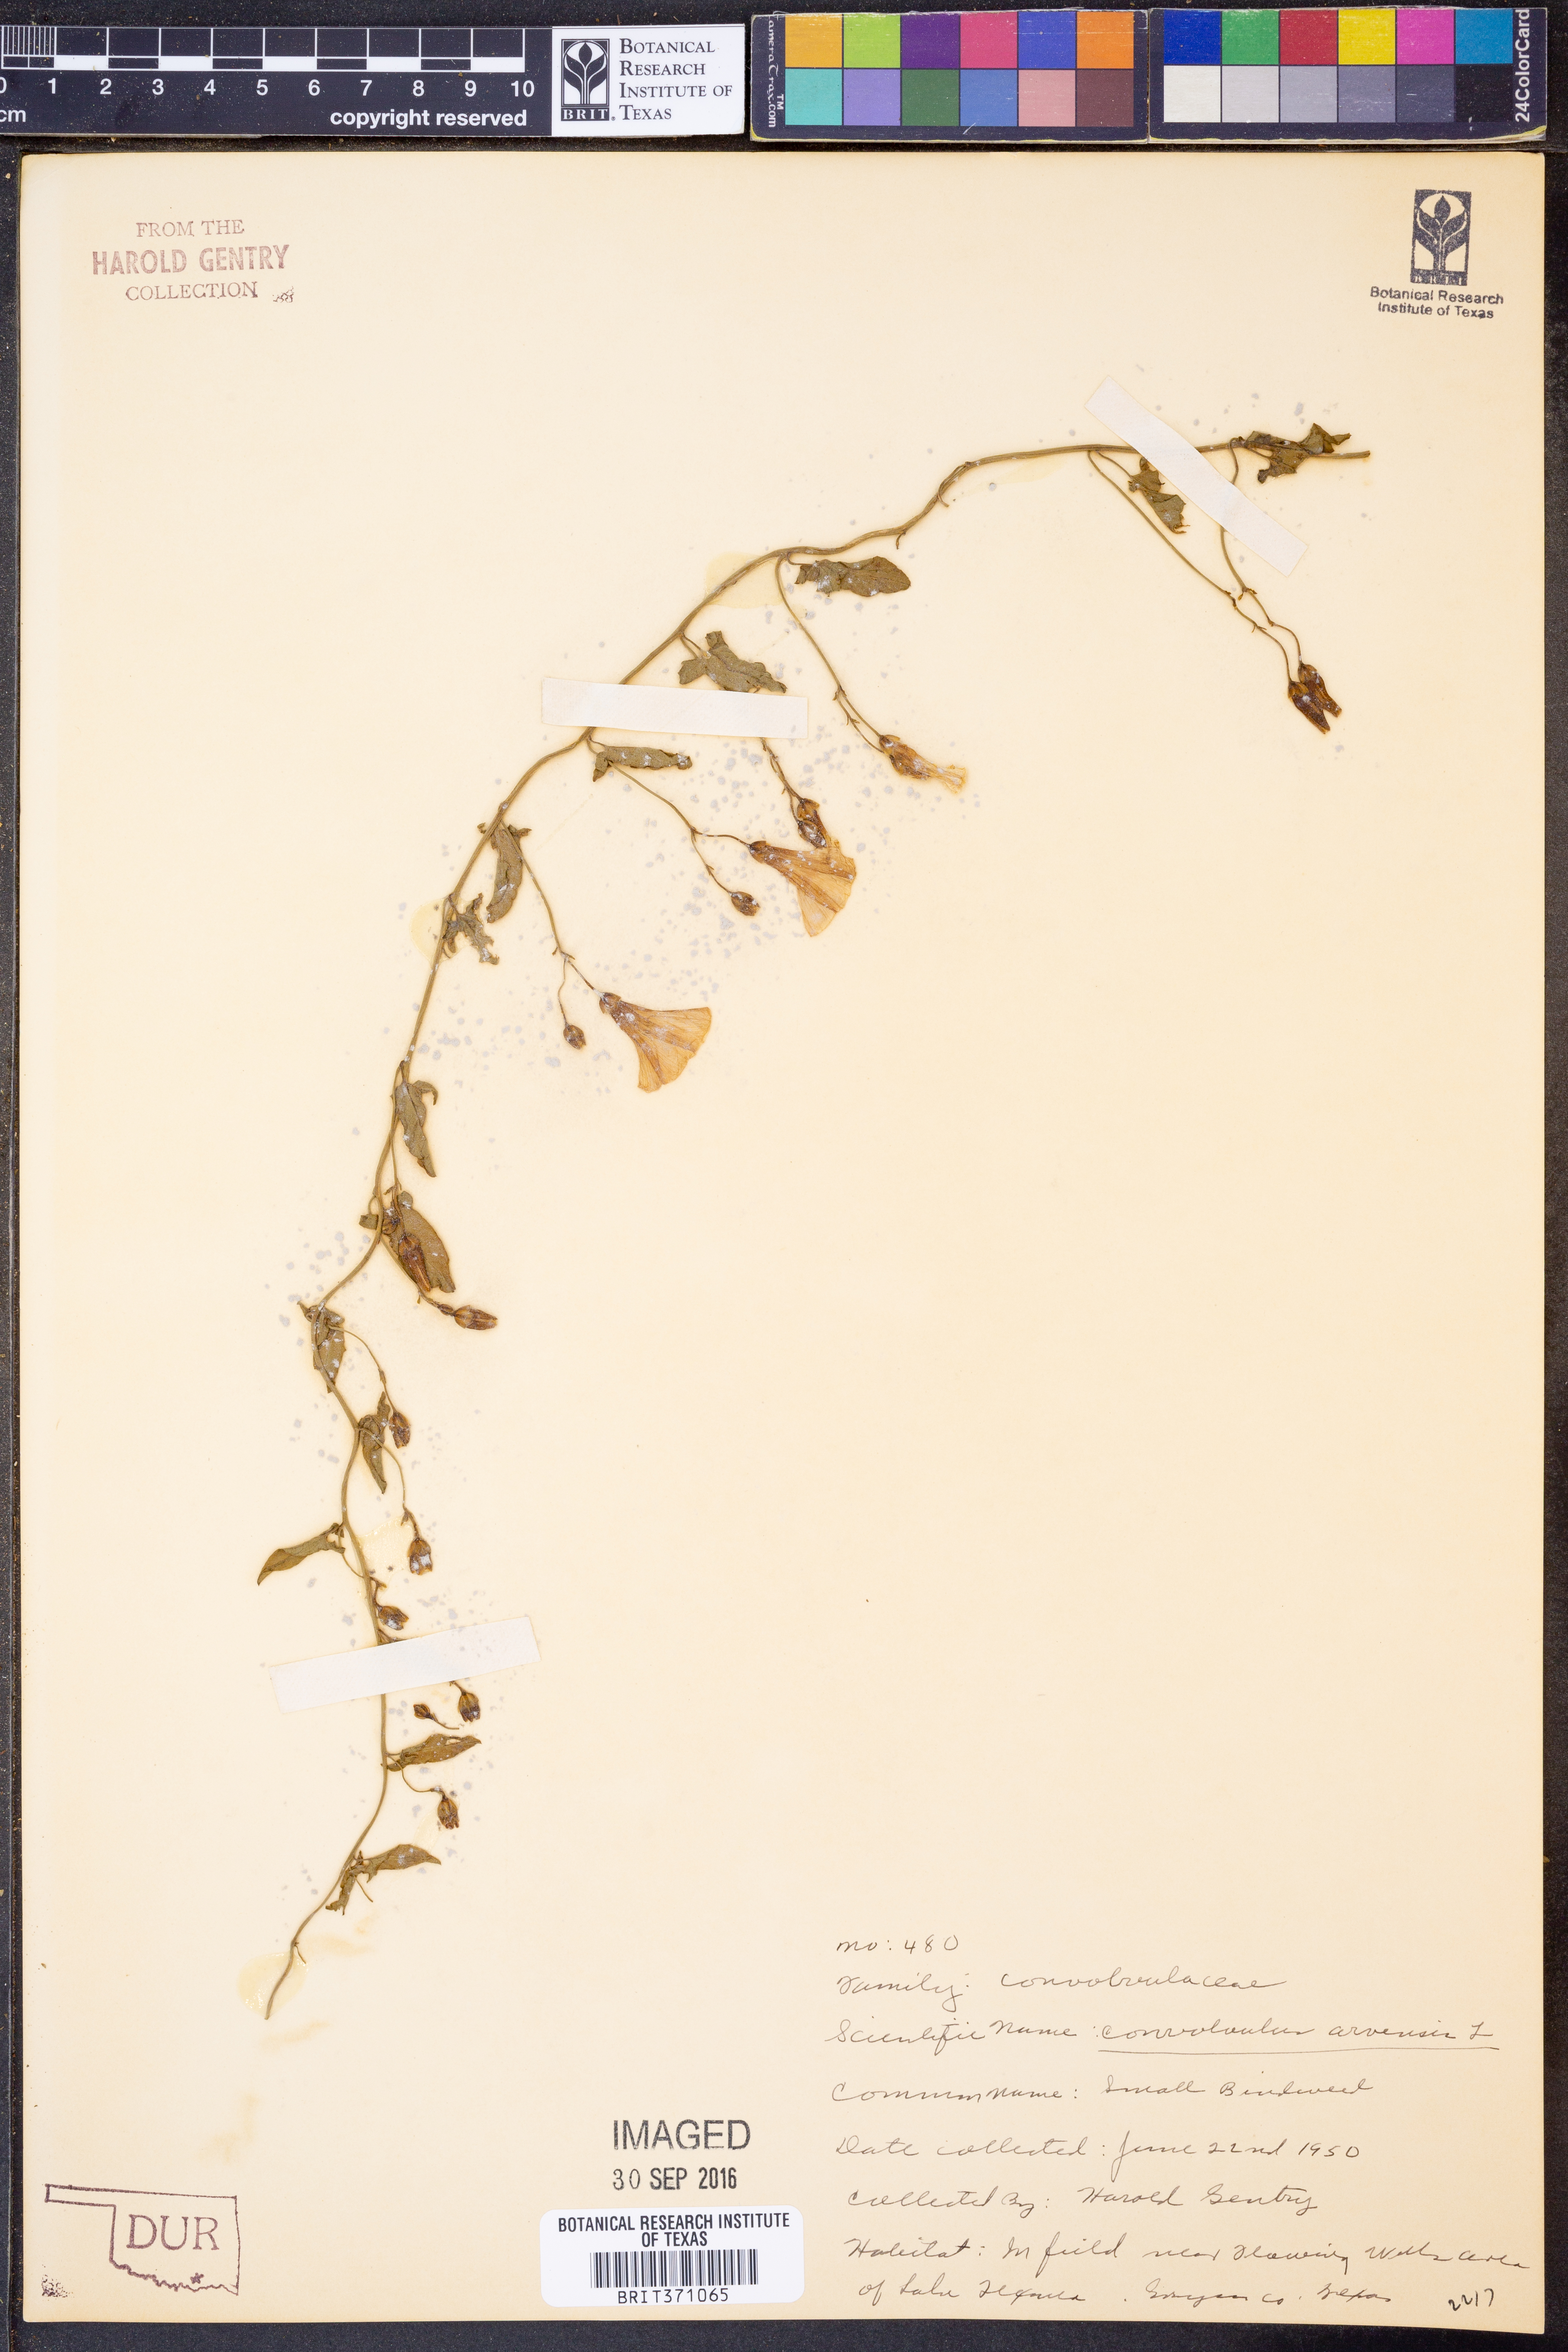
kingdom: Plantae
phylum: Tracheophyta
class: Magnoliopsida
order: Solanales
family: Convolvulaceae
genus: Convolvulus
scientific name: Convolvulus arvensis
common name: Field bindweed
